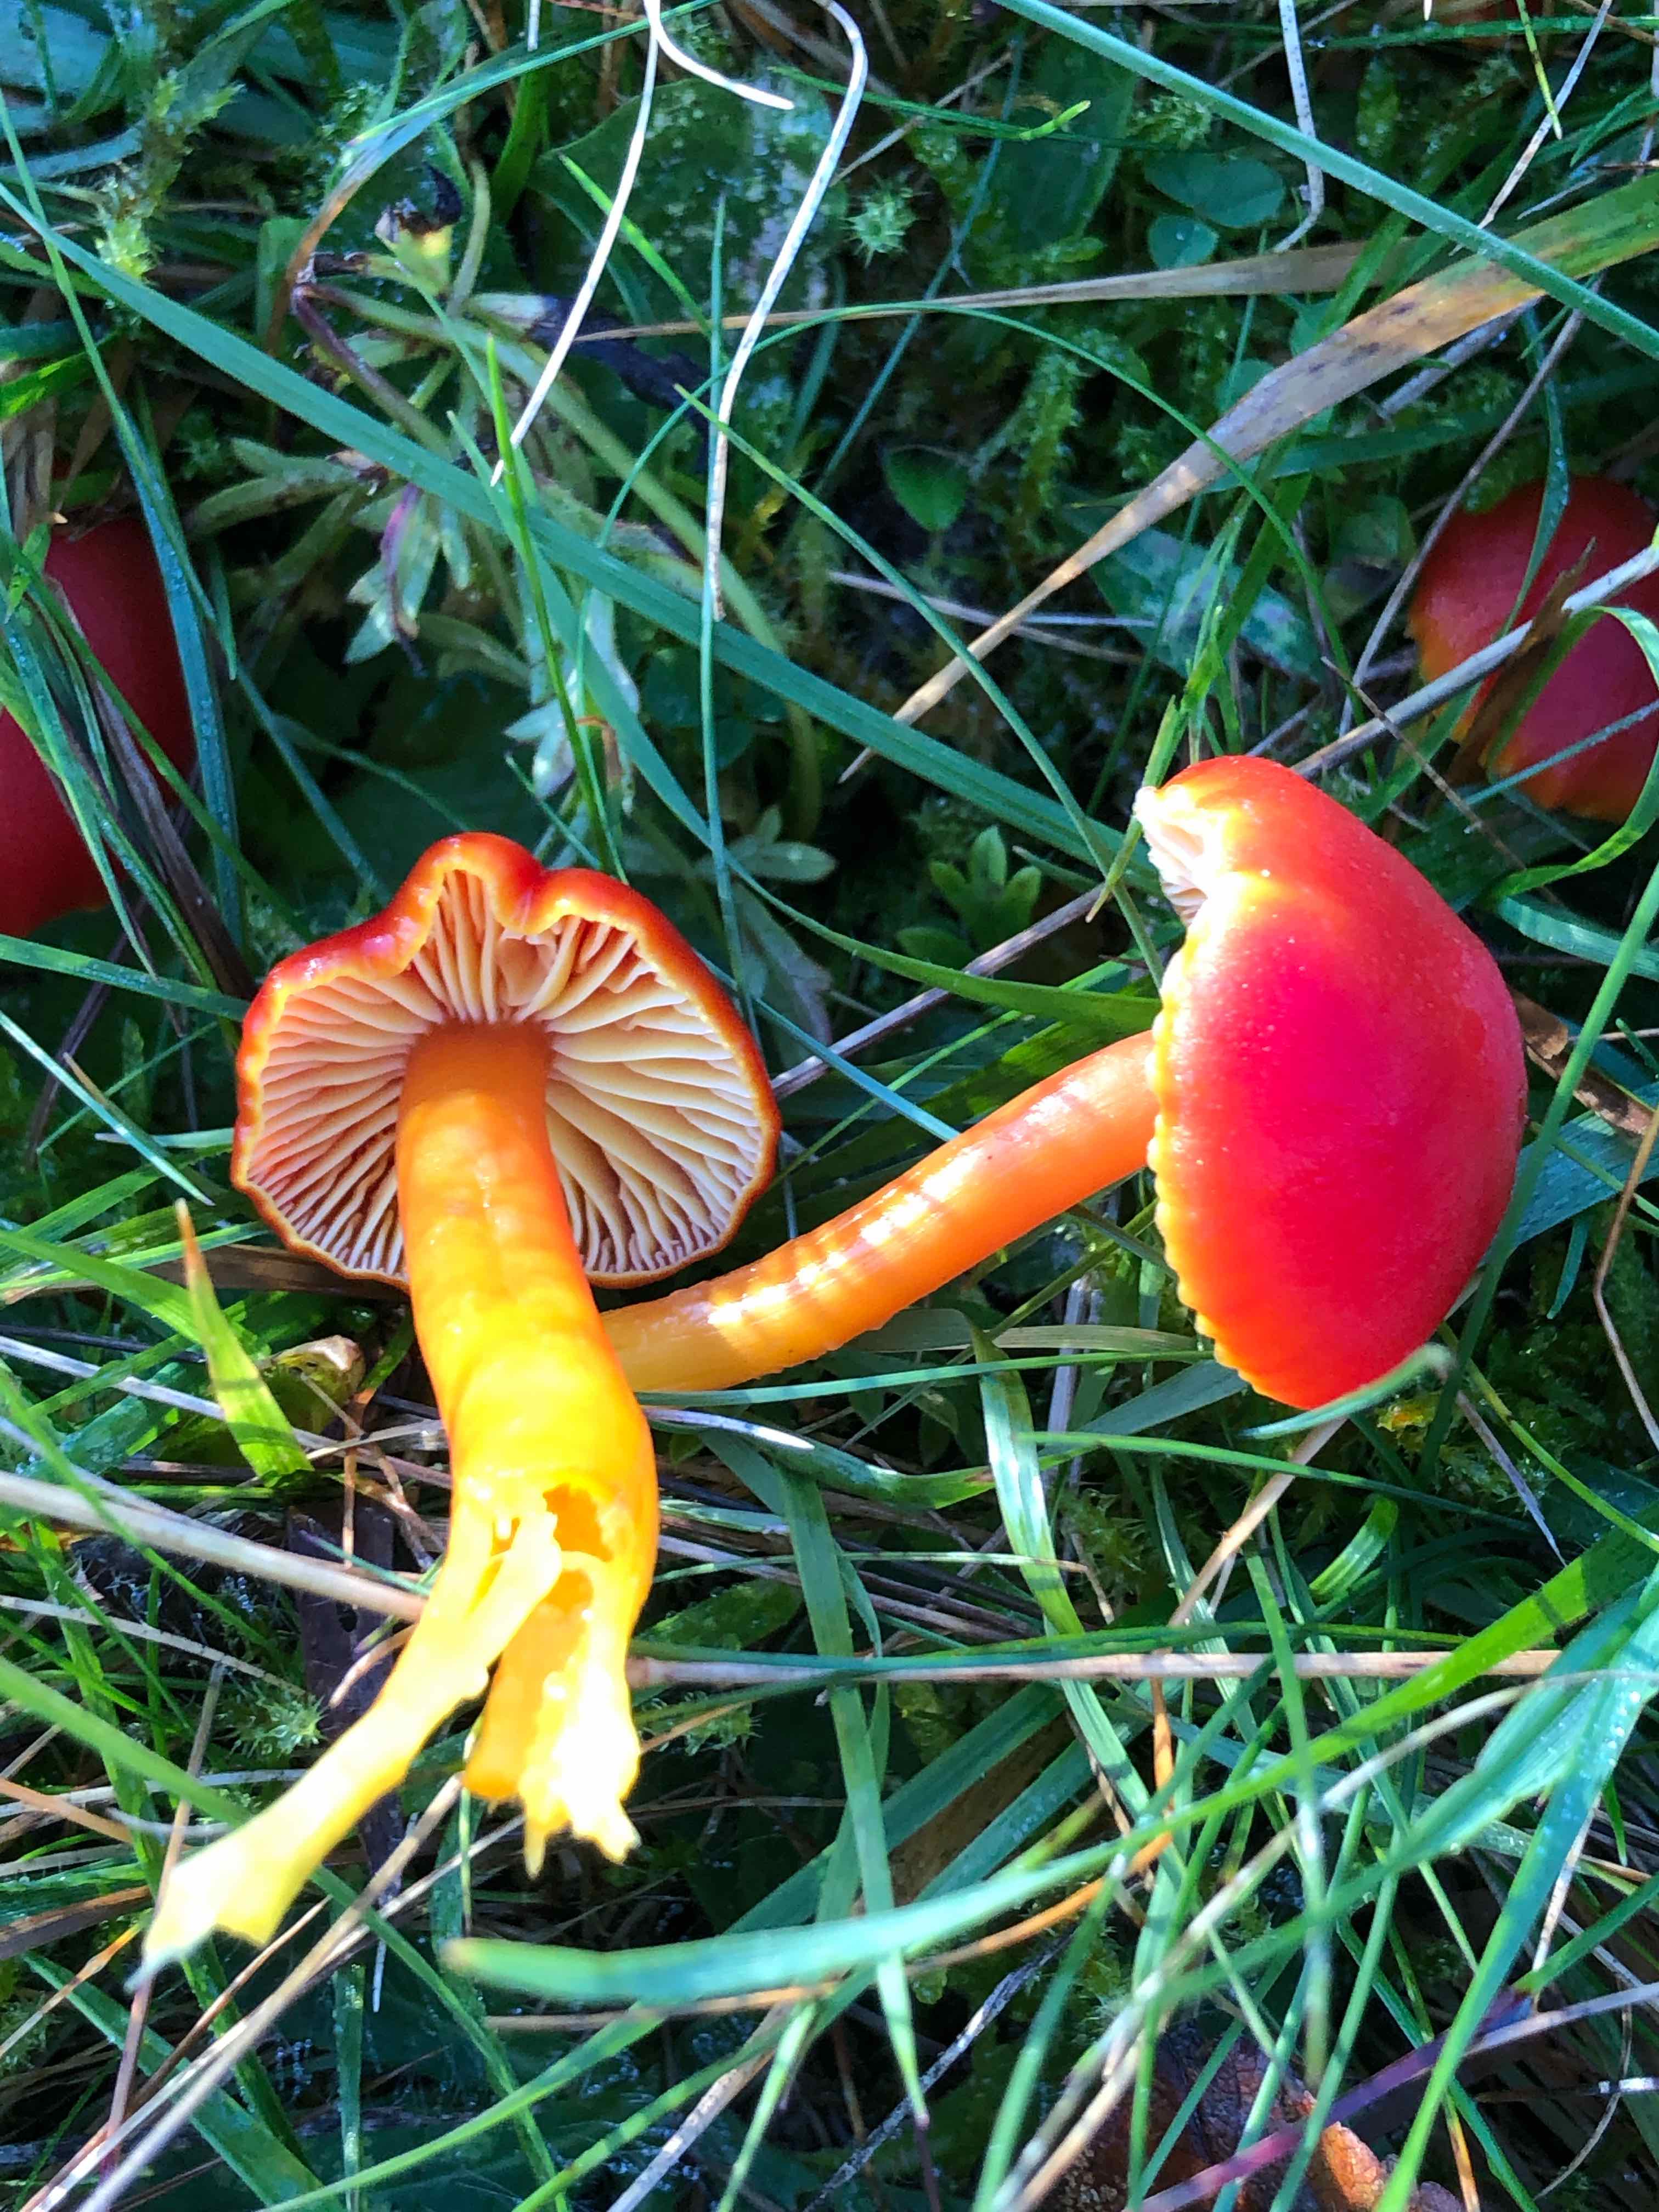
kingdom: Fungi
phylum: Basidiomycota
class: Agaricomycetes
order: Agaricales
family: Hygrophoraceae
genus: Hygrocybe
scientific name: Hygrocybe coccinea
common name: cinnober-vokshat
